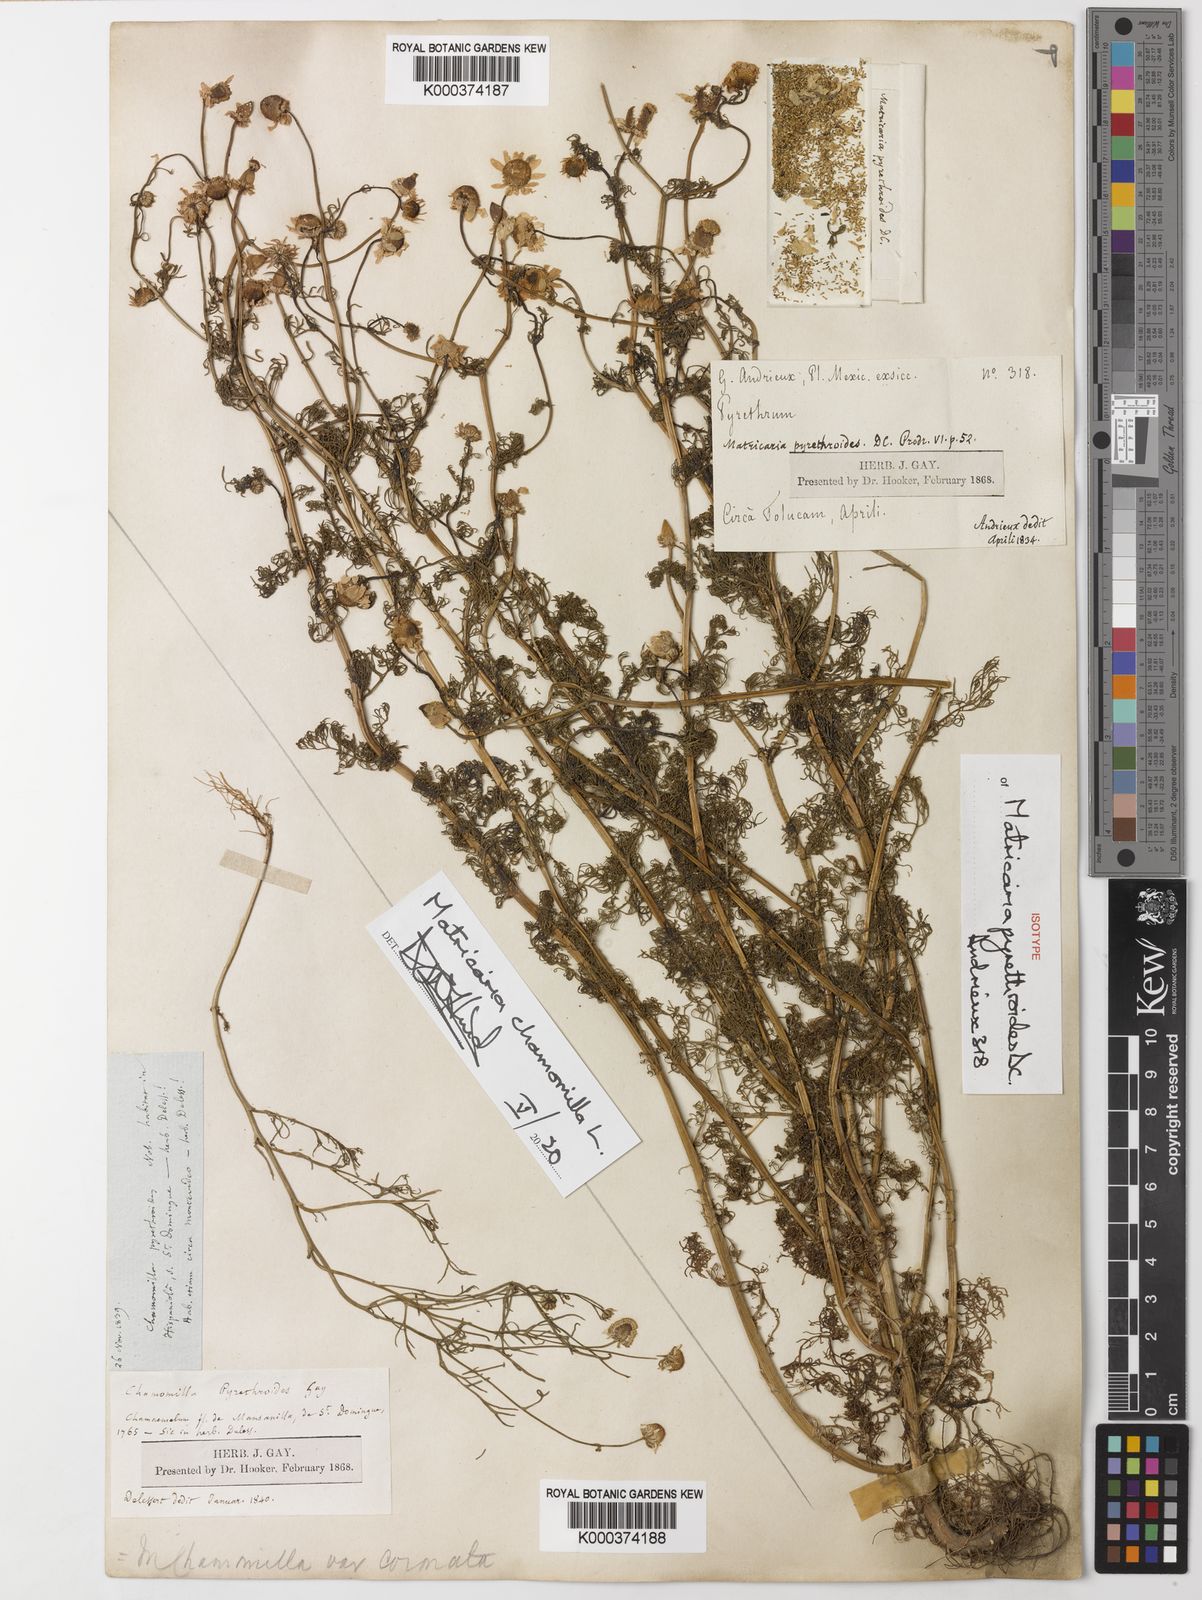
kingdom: Plantae
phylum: Tracheophyta
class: Magnoliopsida
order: Asterales
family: Asteraceae
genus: Matricaria
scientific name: Matricaria chamomilla
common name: Scented mayweed
